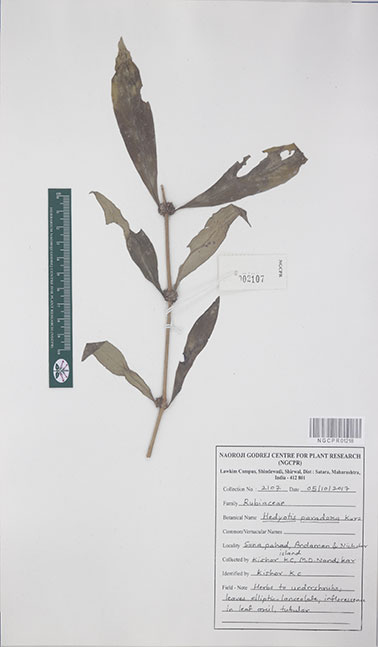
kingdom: Plantae
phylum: Tracheophyta
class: Magnoliopsida
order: Gentianales
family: Rubiaceae
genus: Exallage
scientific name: Exallage paradoxa
